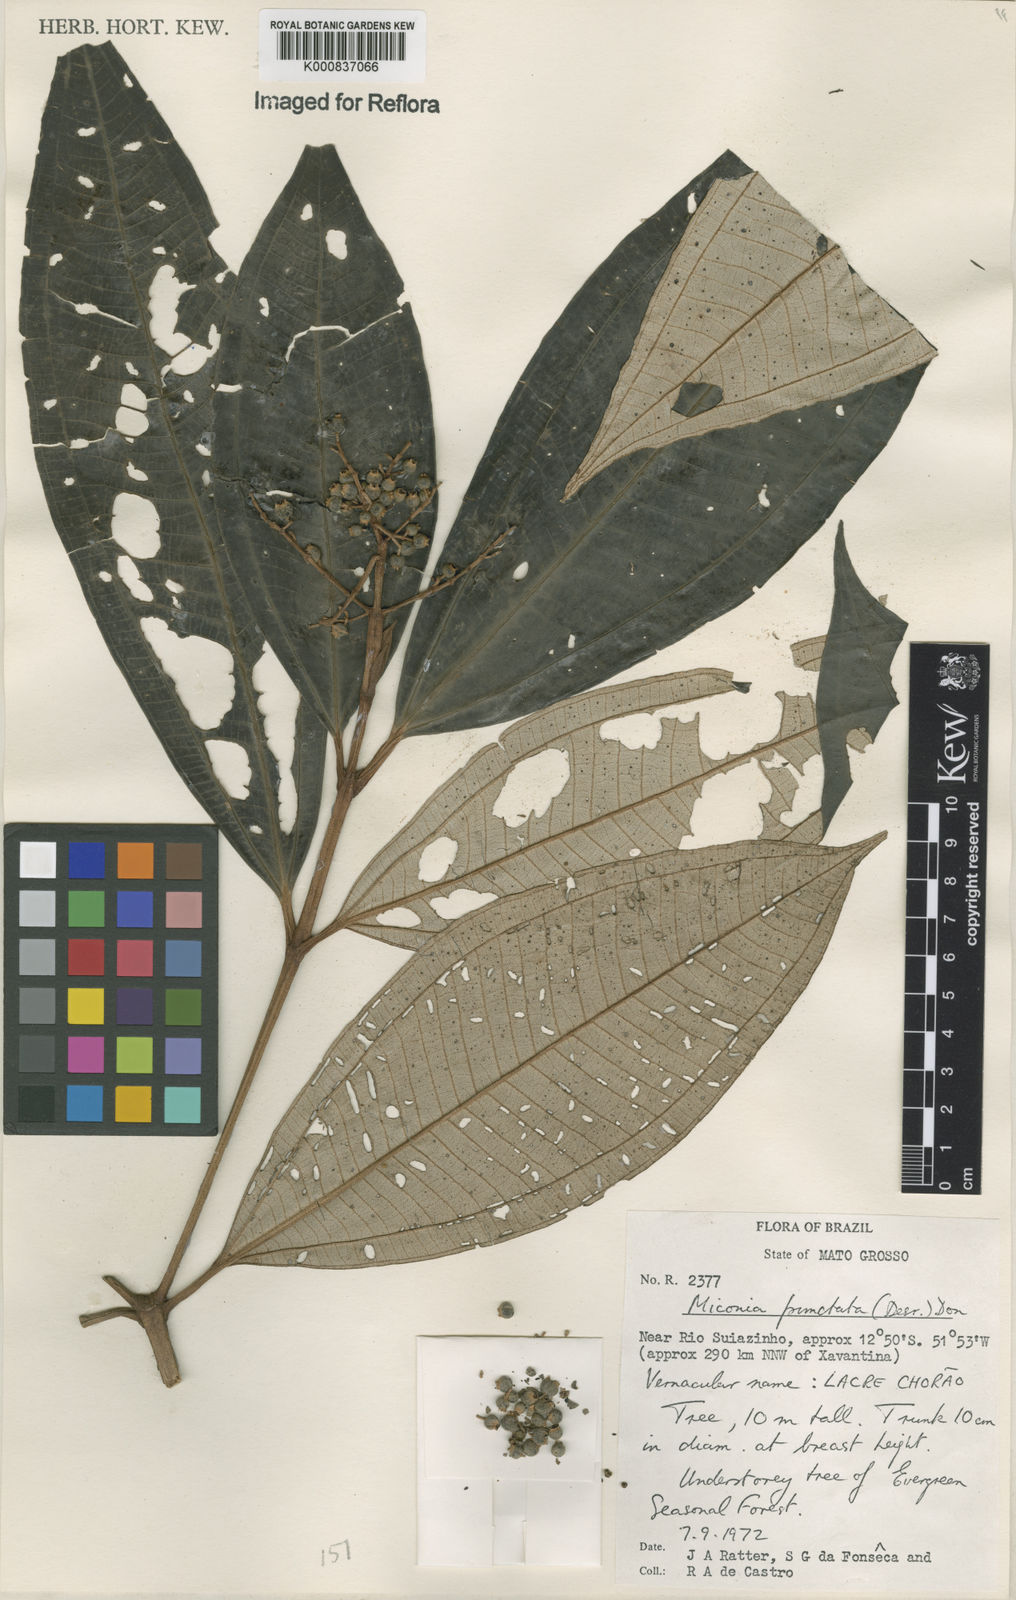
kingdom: Plantae
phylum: Tracheophyta
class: Magnoliopsida
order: Myrtales
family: Melastomataceae
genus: Miconia
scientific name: Miconia punctata
